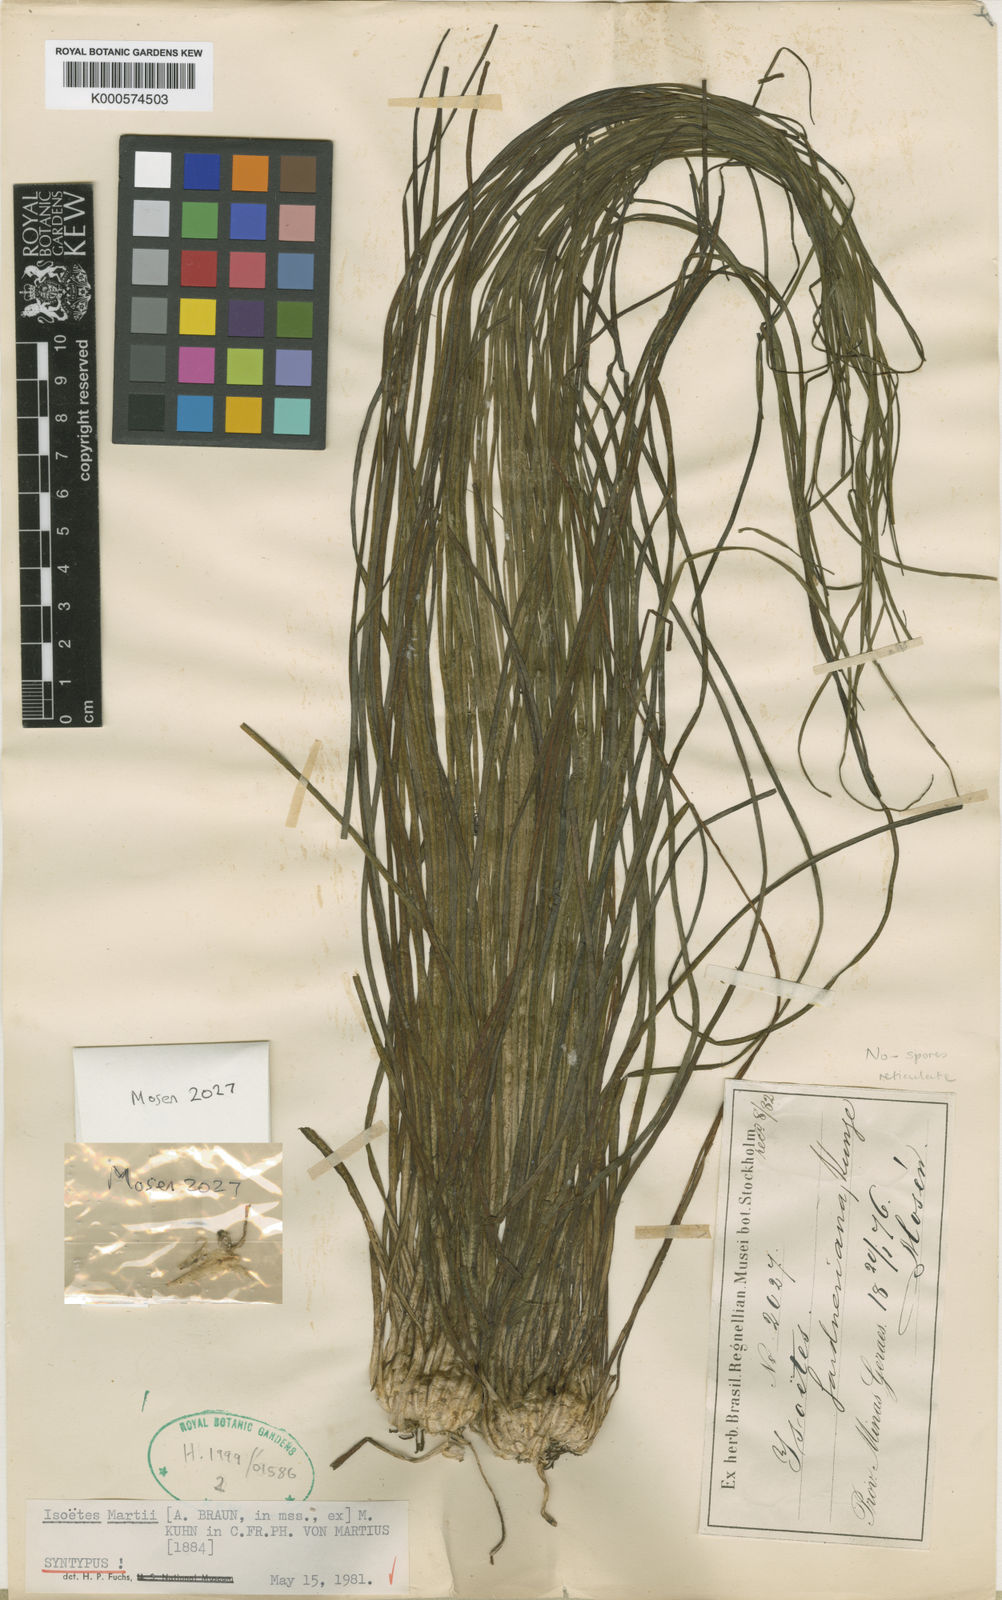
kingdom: Plantae
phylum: Tracheophyta
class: Lycopodiopsida
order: Isoetales
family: Isoetaceae
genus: Isoetes
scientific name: Isoetes martii
